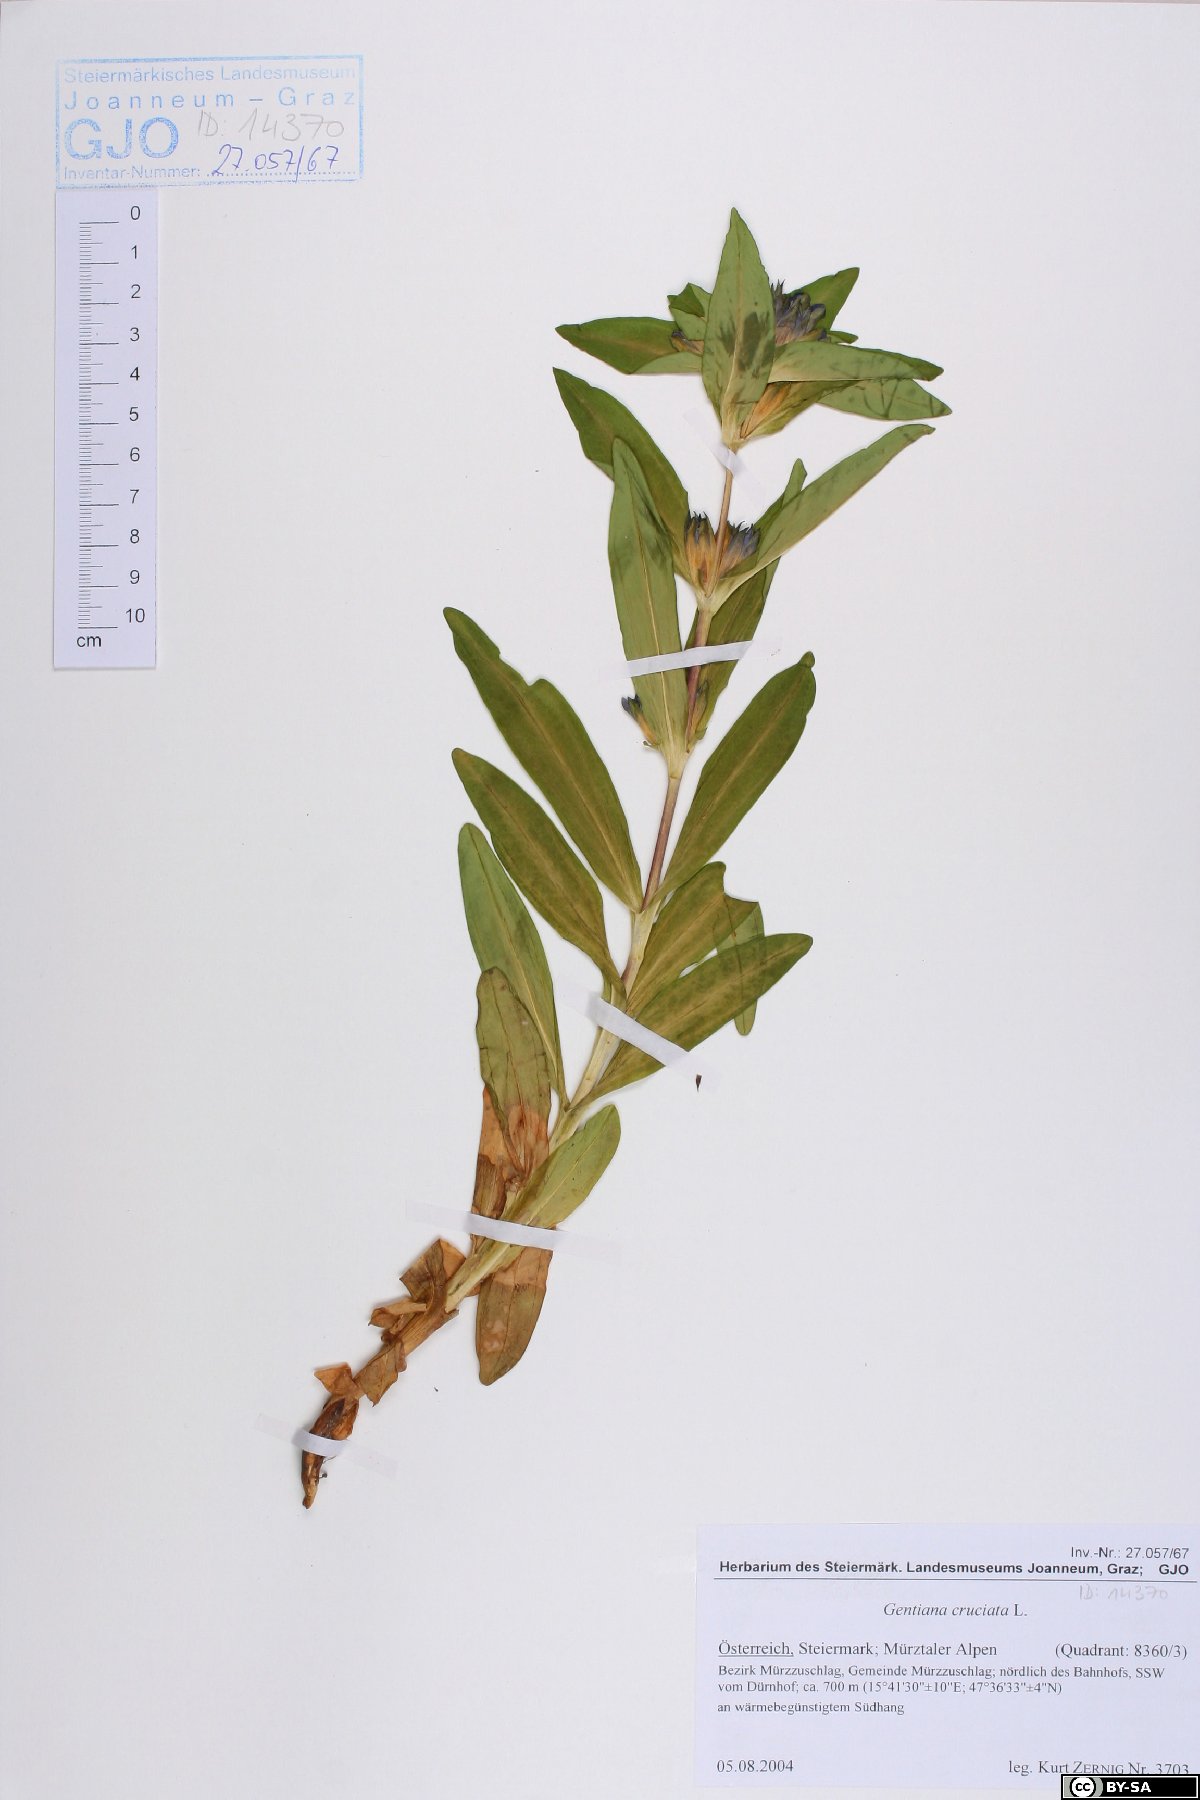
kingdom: Plantae
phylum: Tracheophyta
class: Magnoliopsida
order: Gentianales
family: Gentianaceae
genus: Gentiana
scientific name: Gentiana cruciata
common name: Cross gentian
